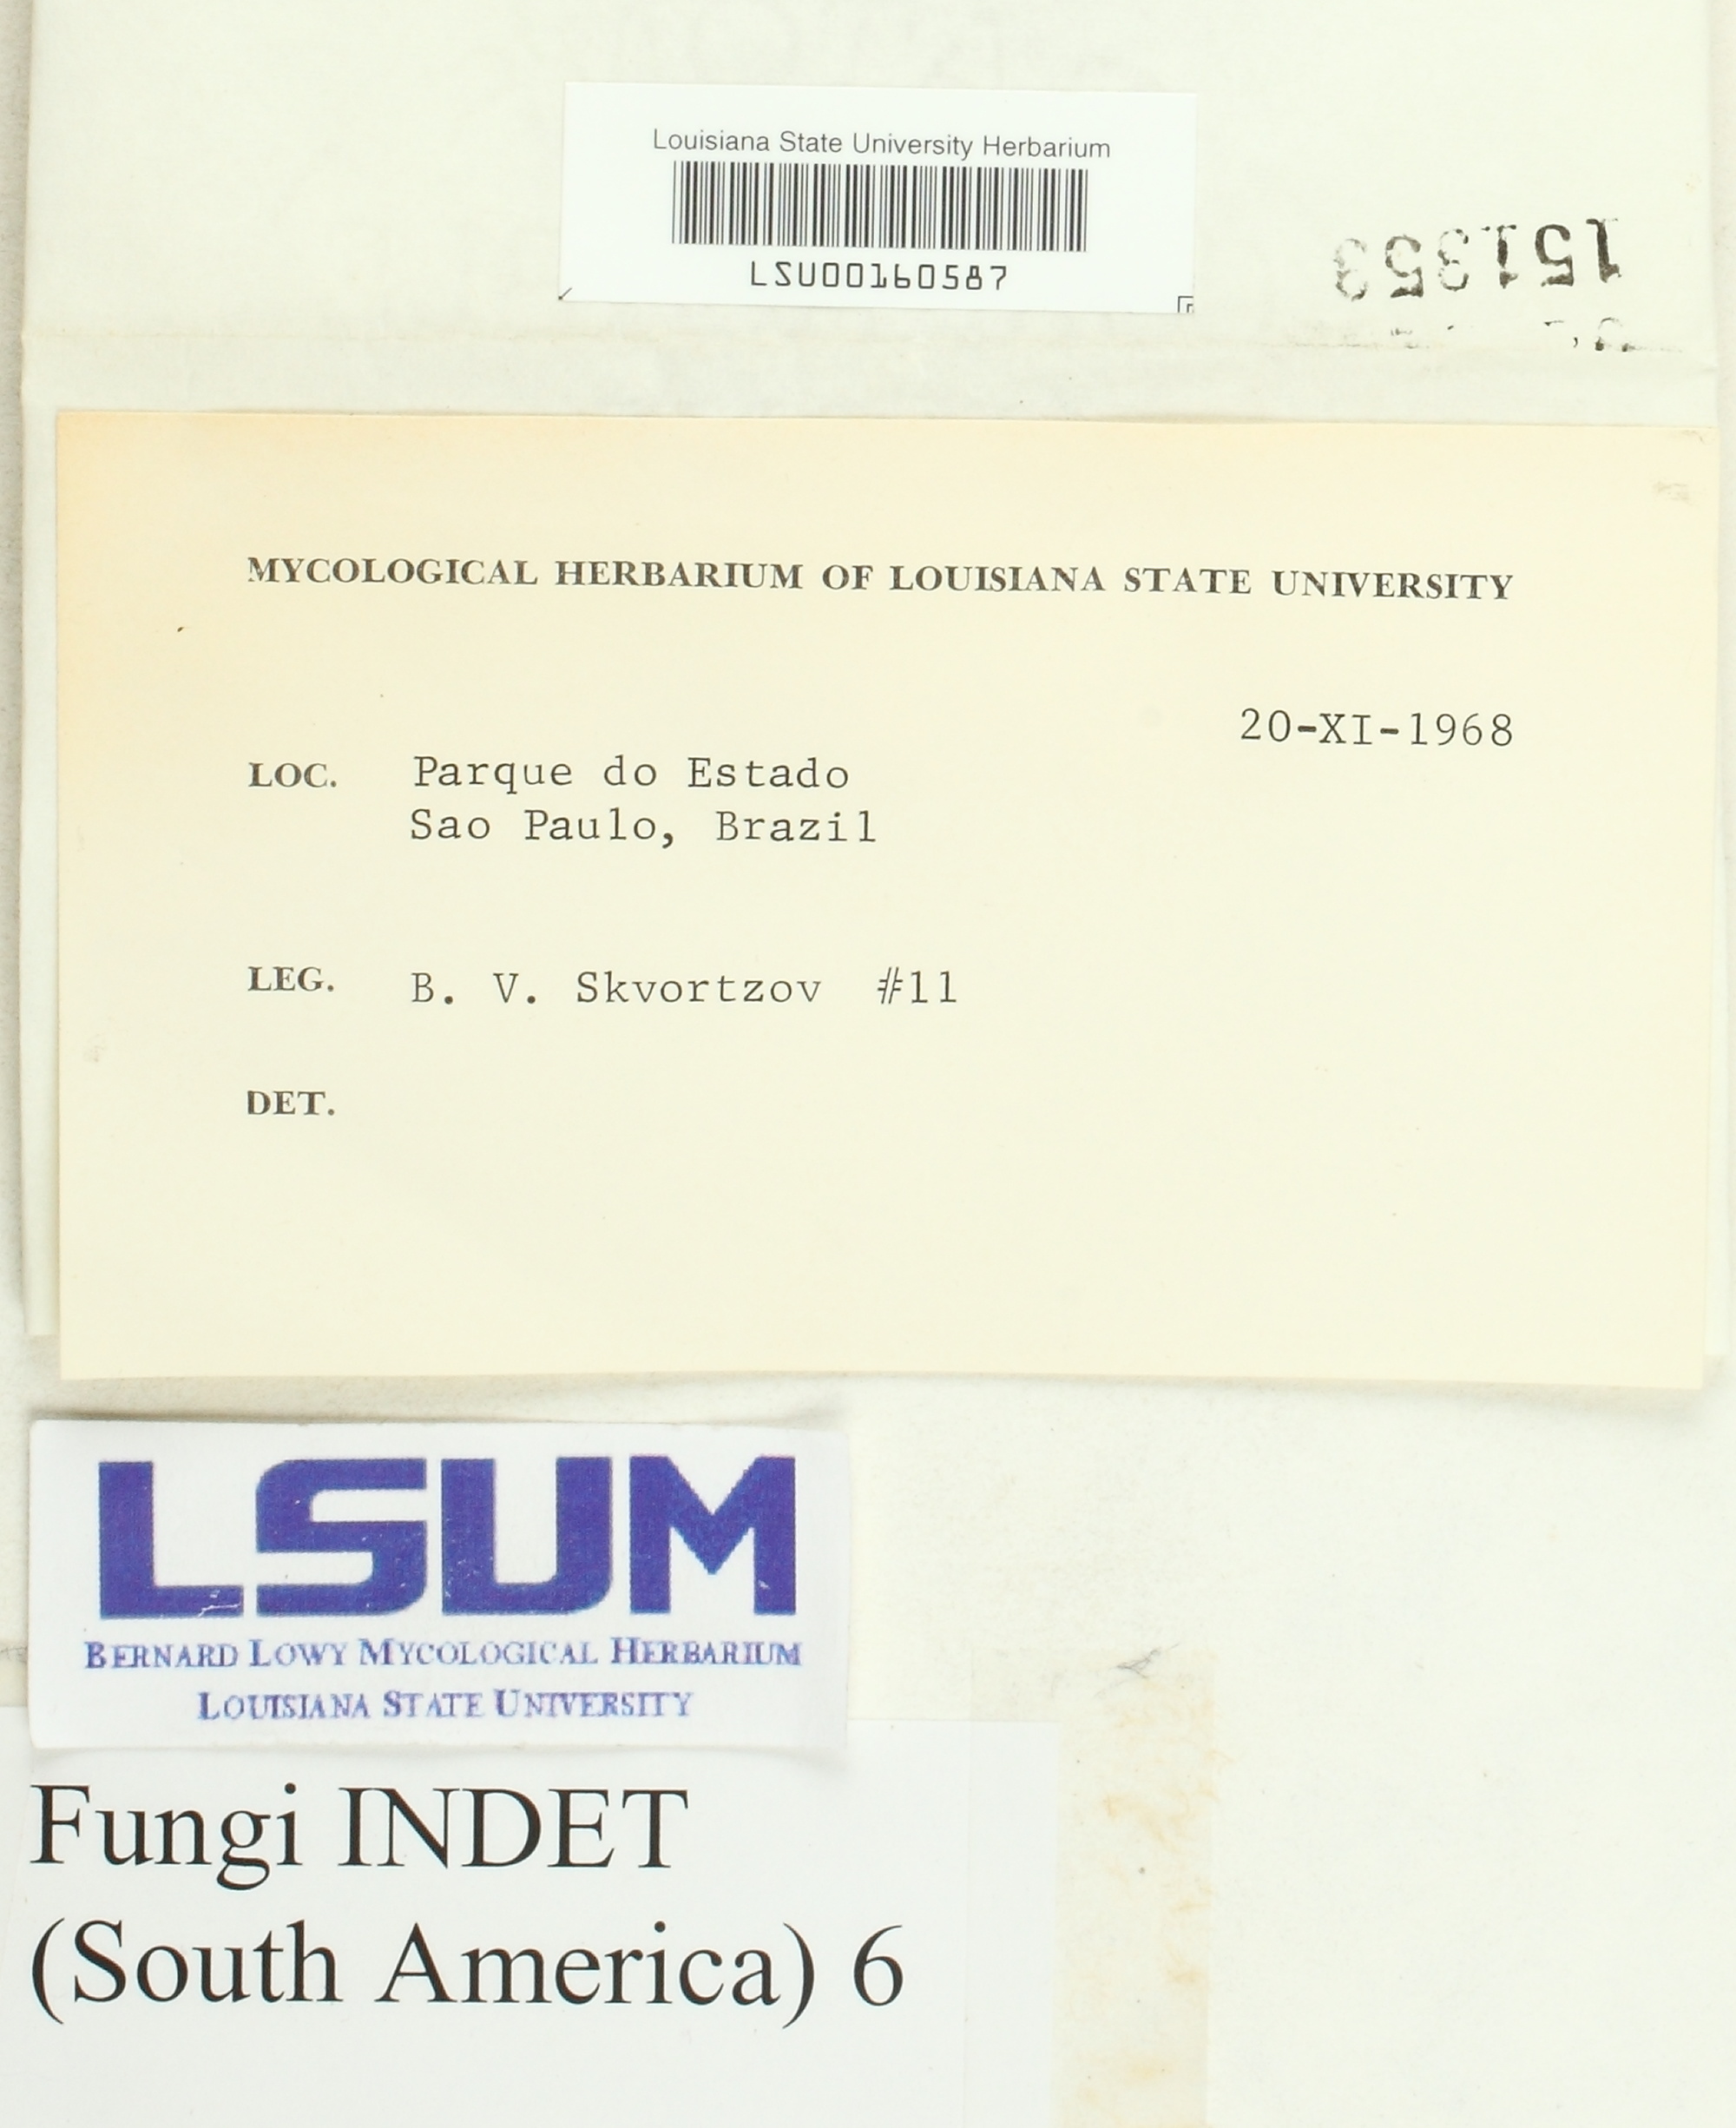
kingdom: Fungi
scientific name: Fungi
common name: Fungi
